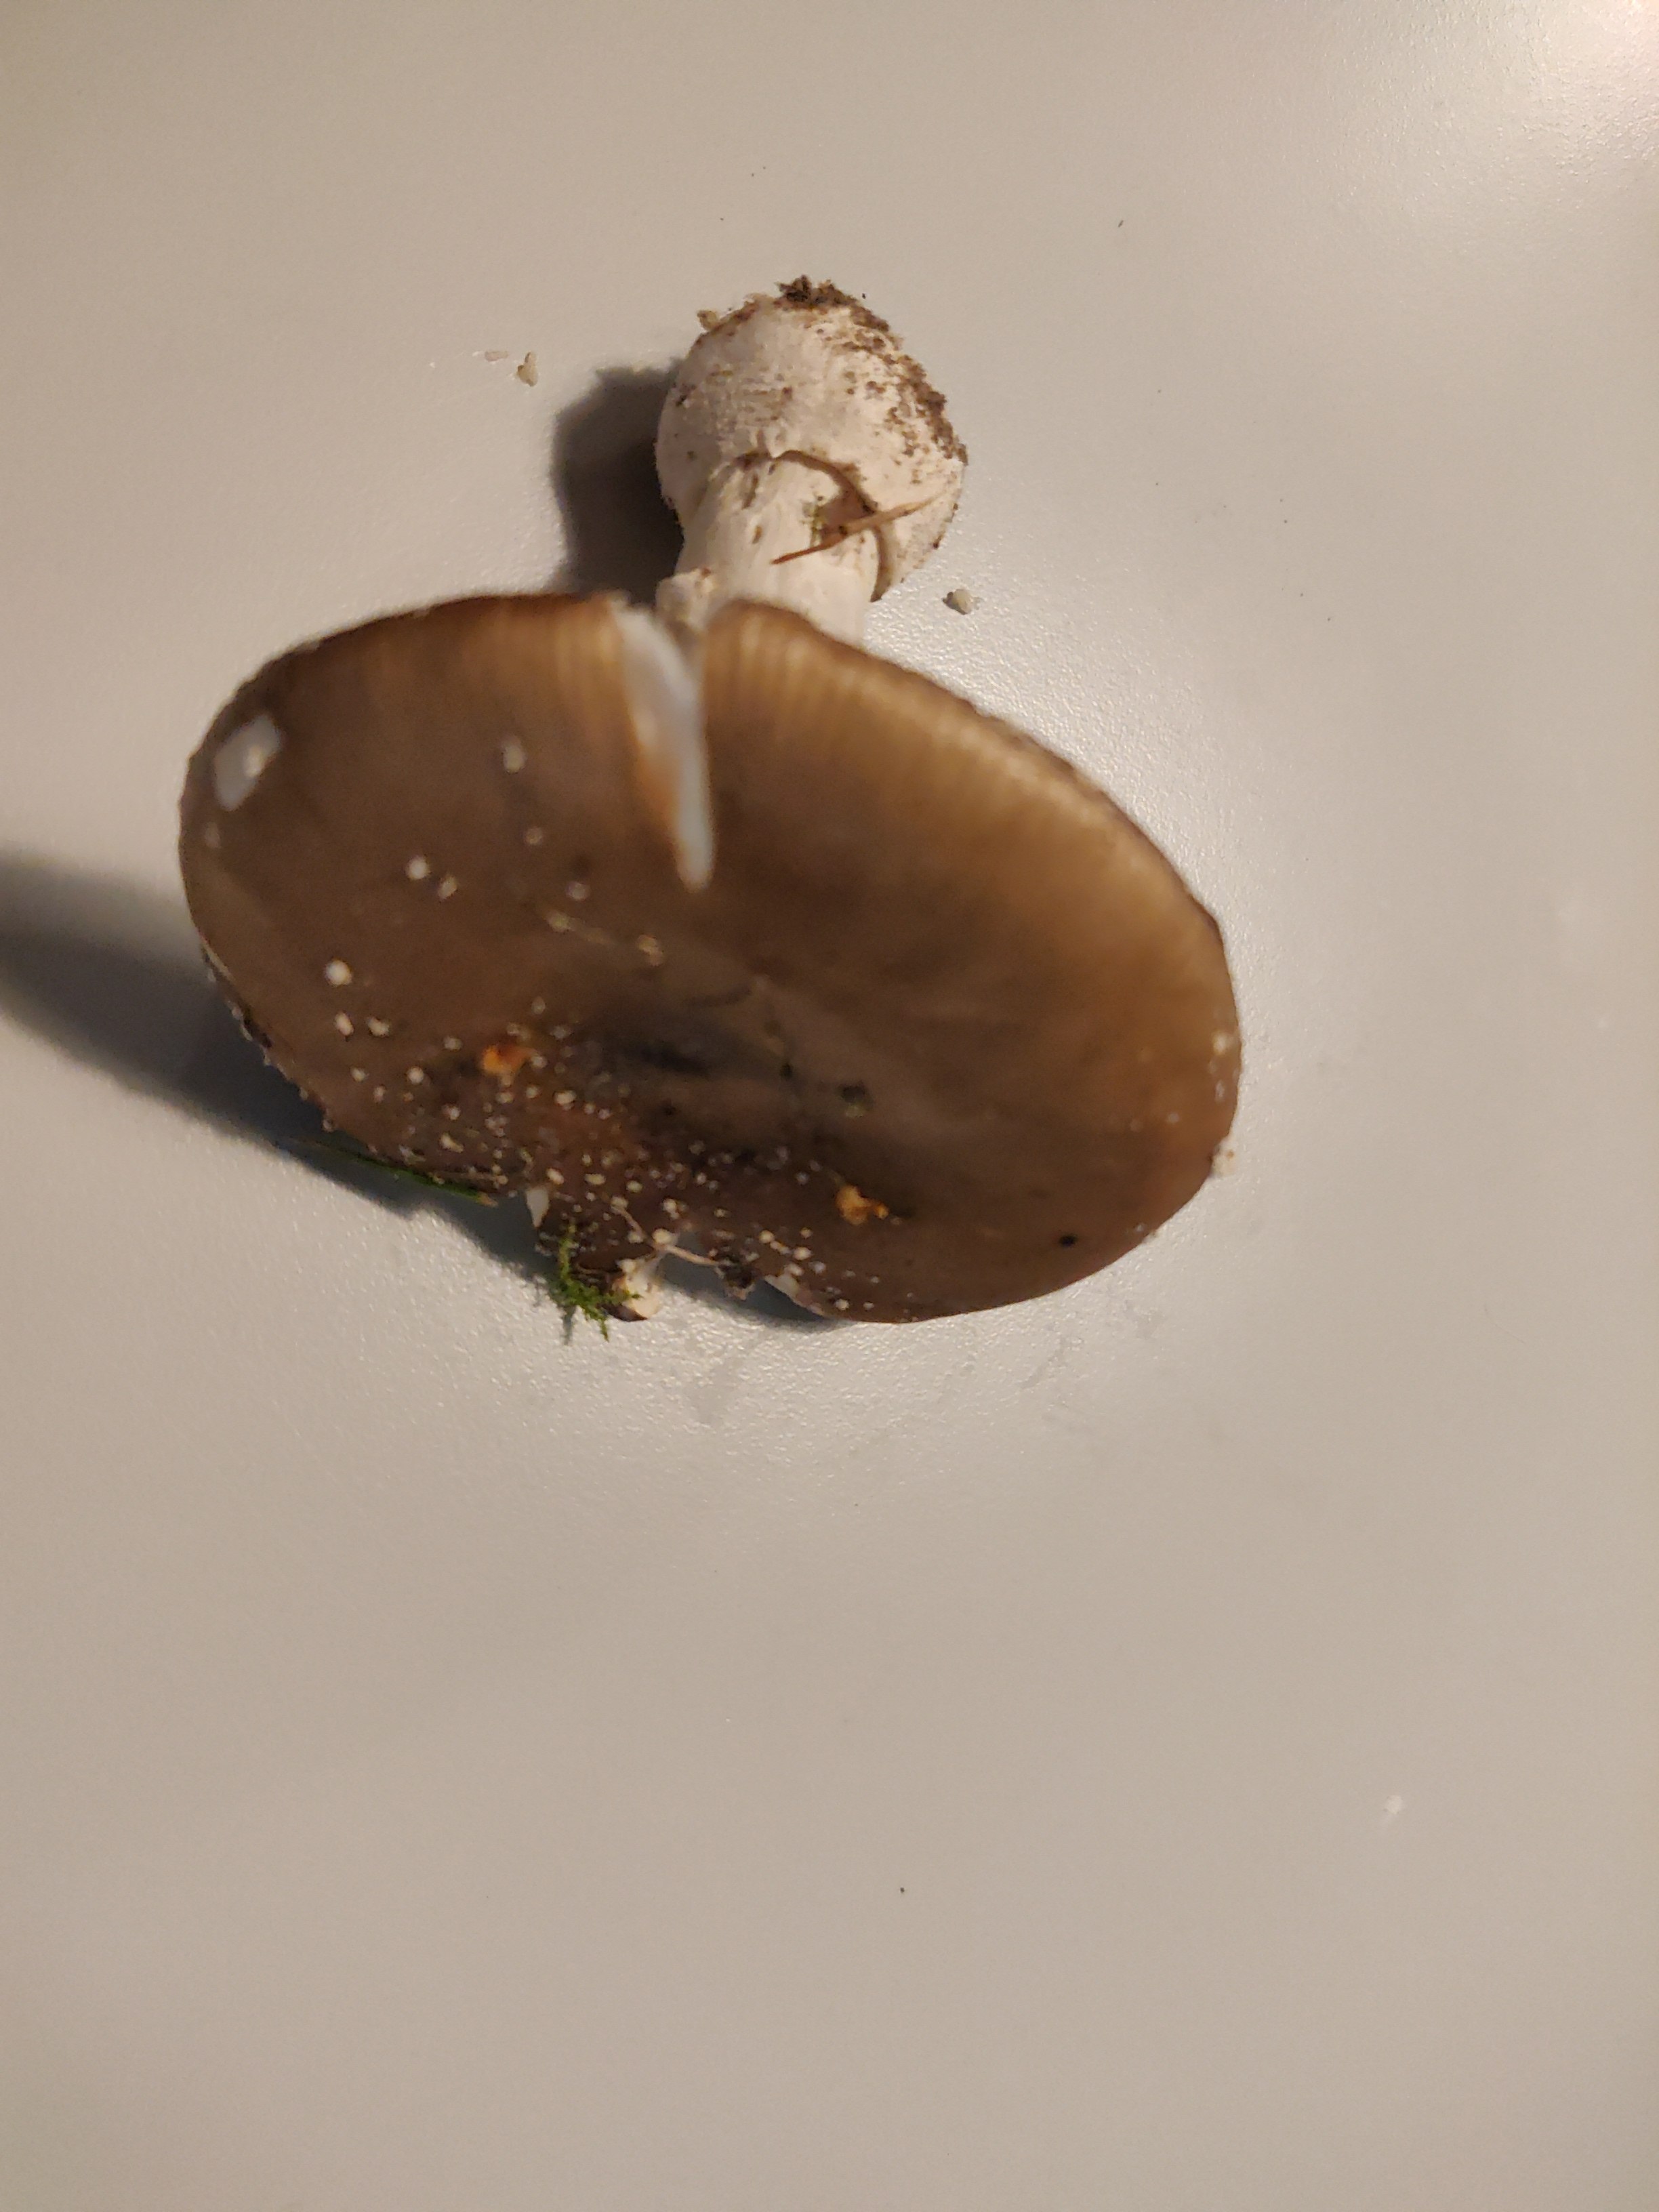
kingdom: Fungi
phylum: Basidiomycota
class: Agaricomycetes
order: Agaricales
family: Amanitaceae
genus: Amanita
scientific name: Amanita pantherina
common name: panter-fluesvamp
